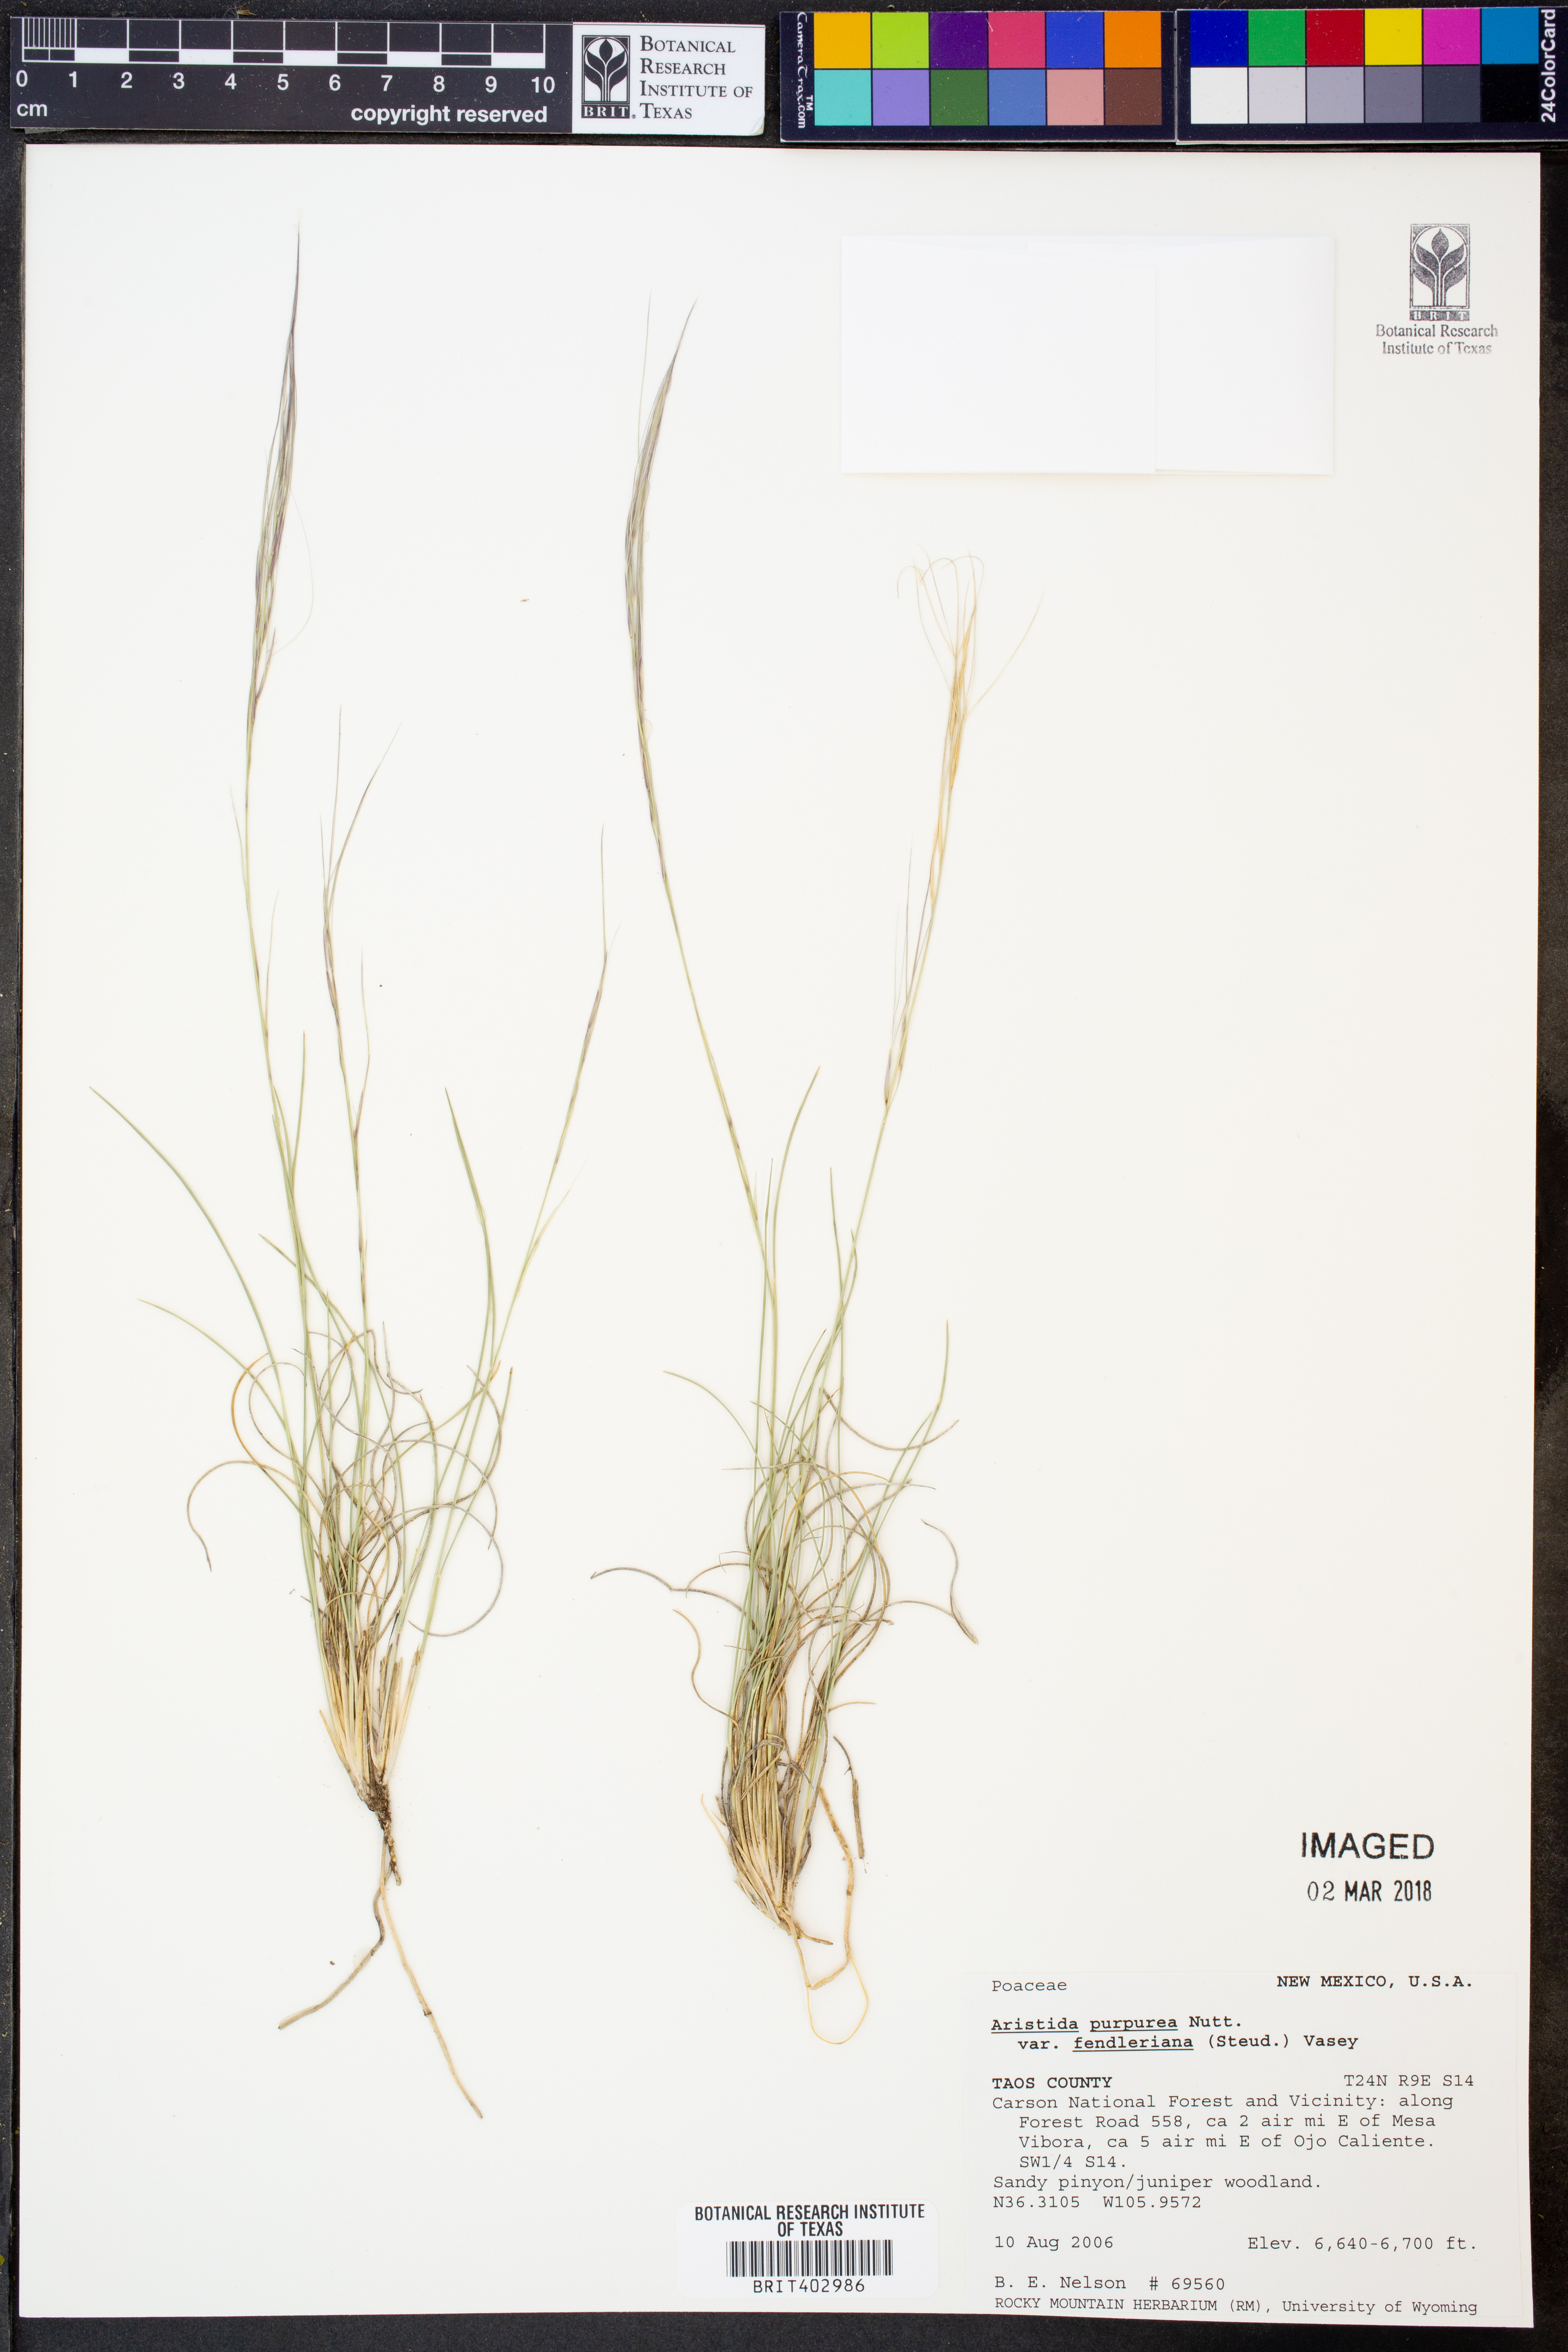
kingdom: Plantae
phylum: Tracheophyta
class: Liliopsida
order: Poales
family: Poaceae
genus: Aristida
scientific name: Aristida fendleriana
